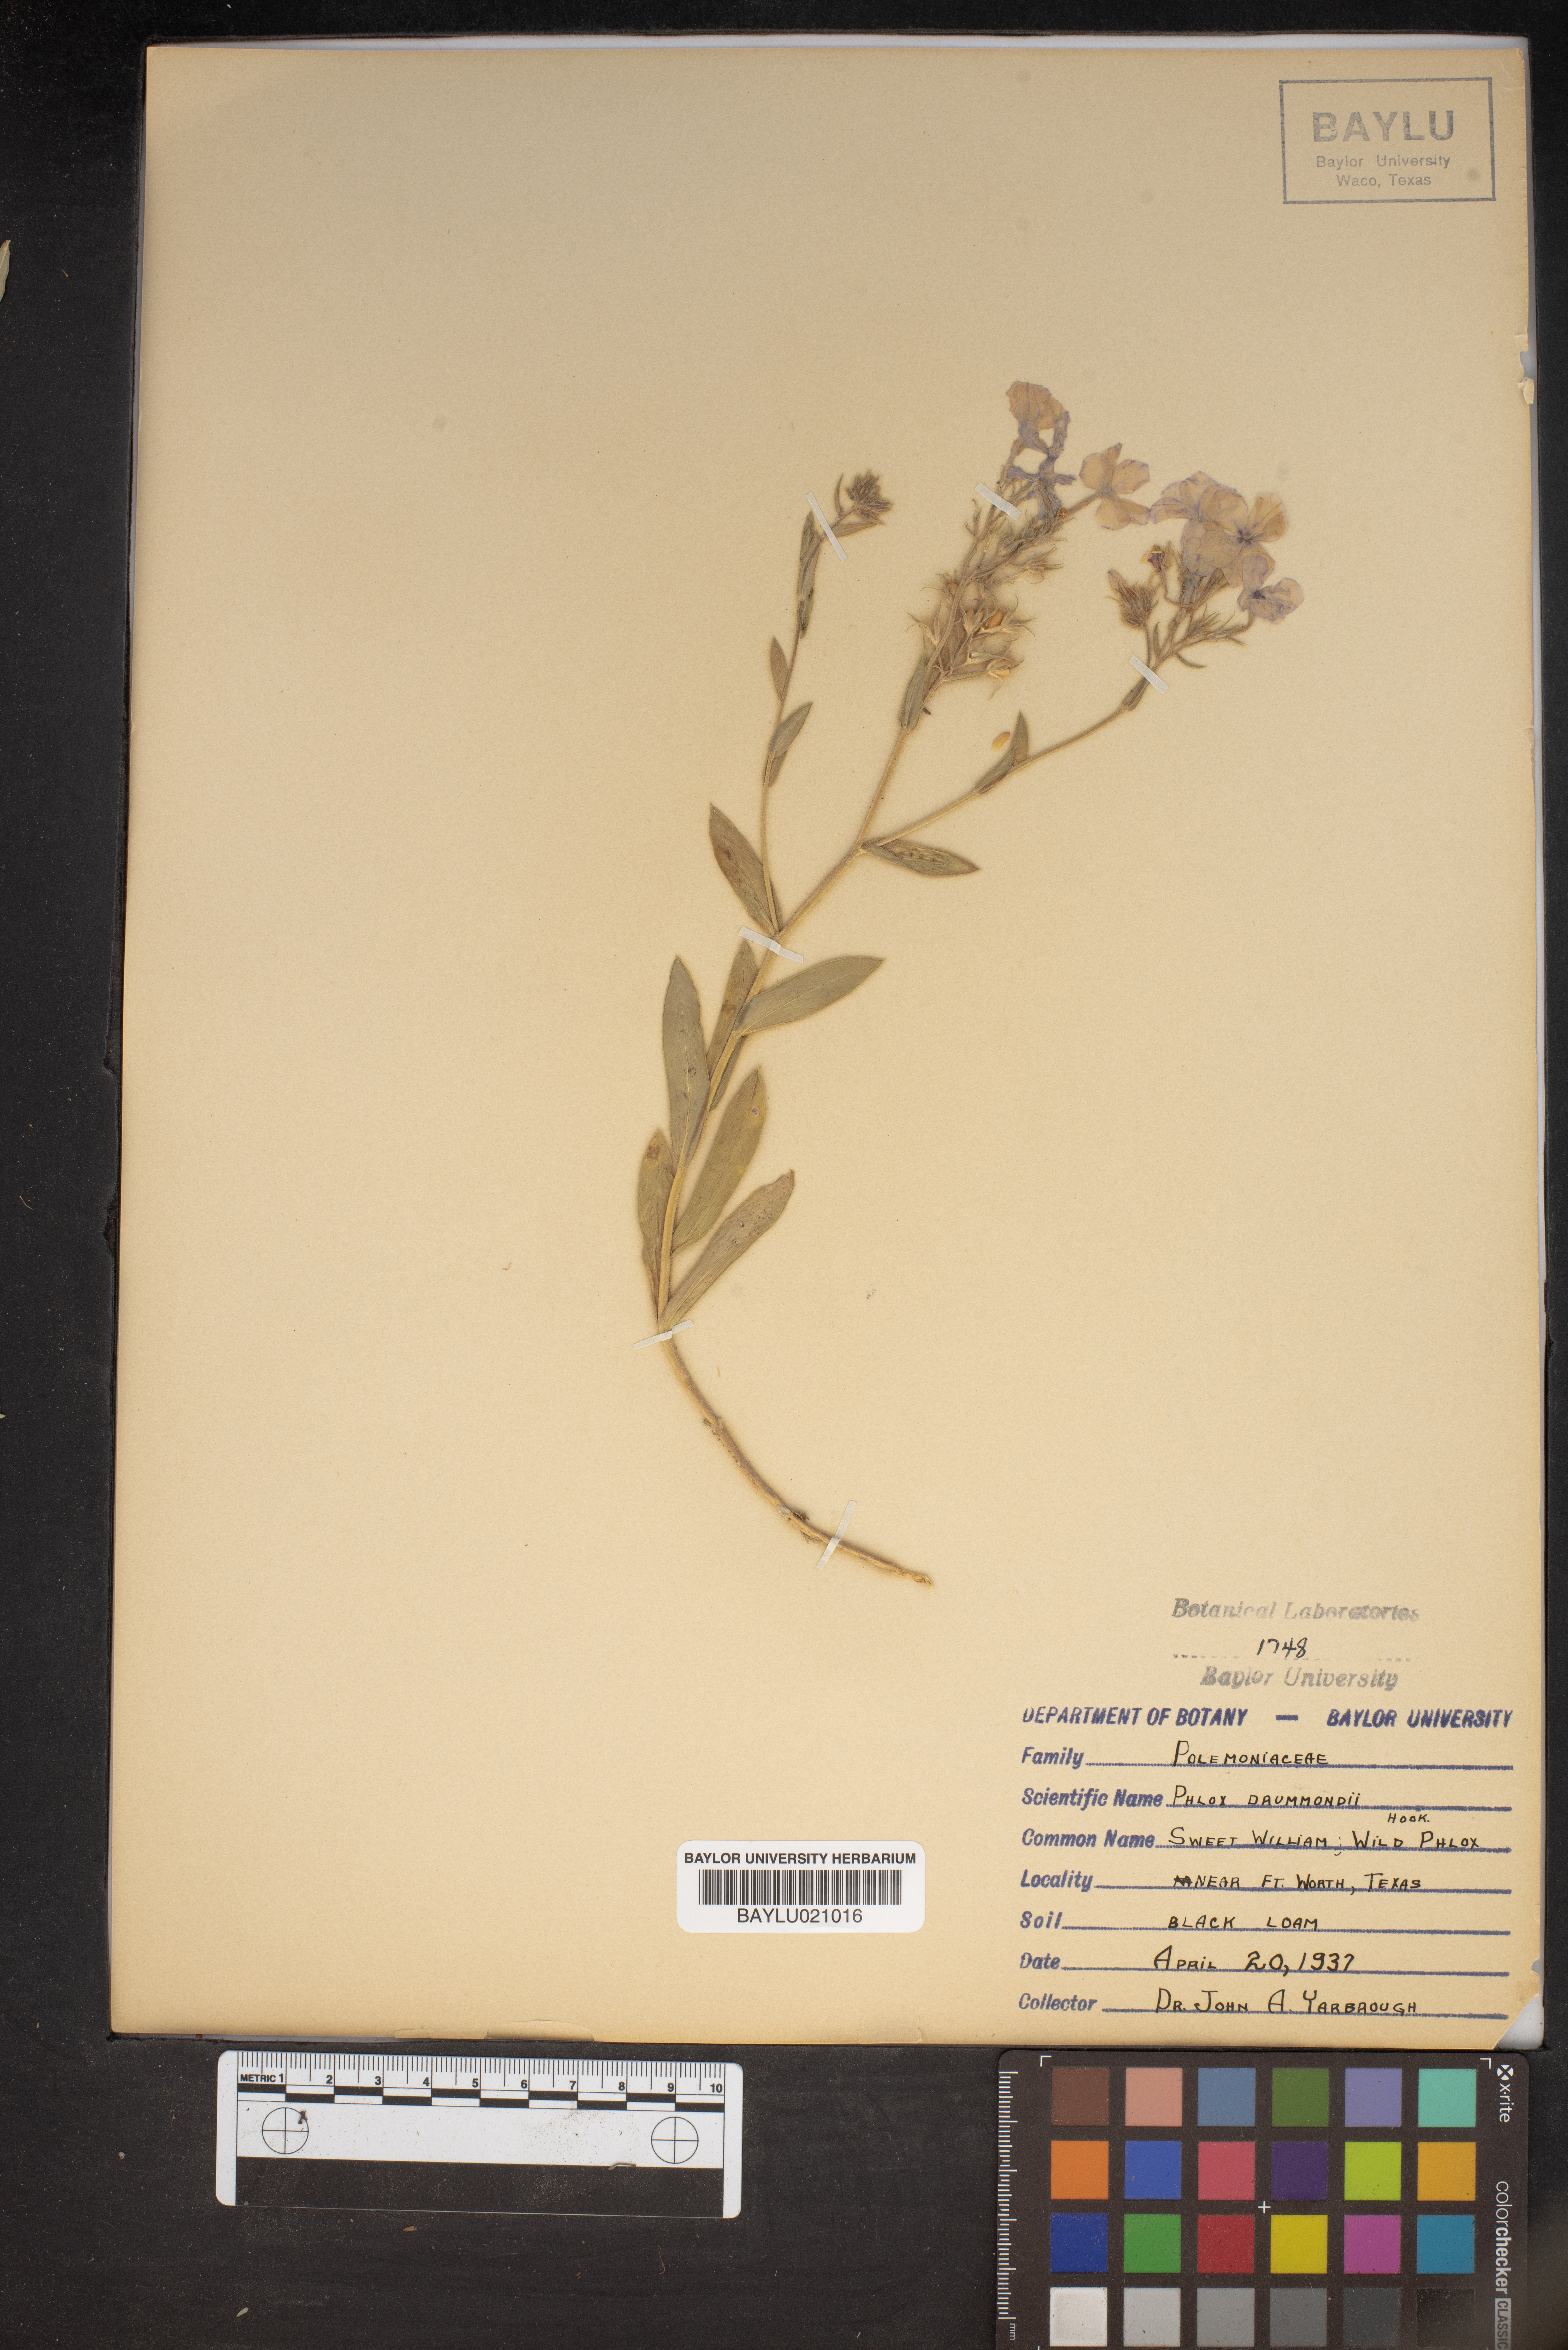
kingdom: Plantae
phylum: Tracheophyta
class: Magnoliopsida
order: Ericales
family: Polemoniaceae
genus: Phlox
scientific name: Phlox drummondii
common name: Drummond's phlox
